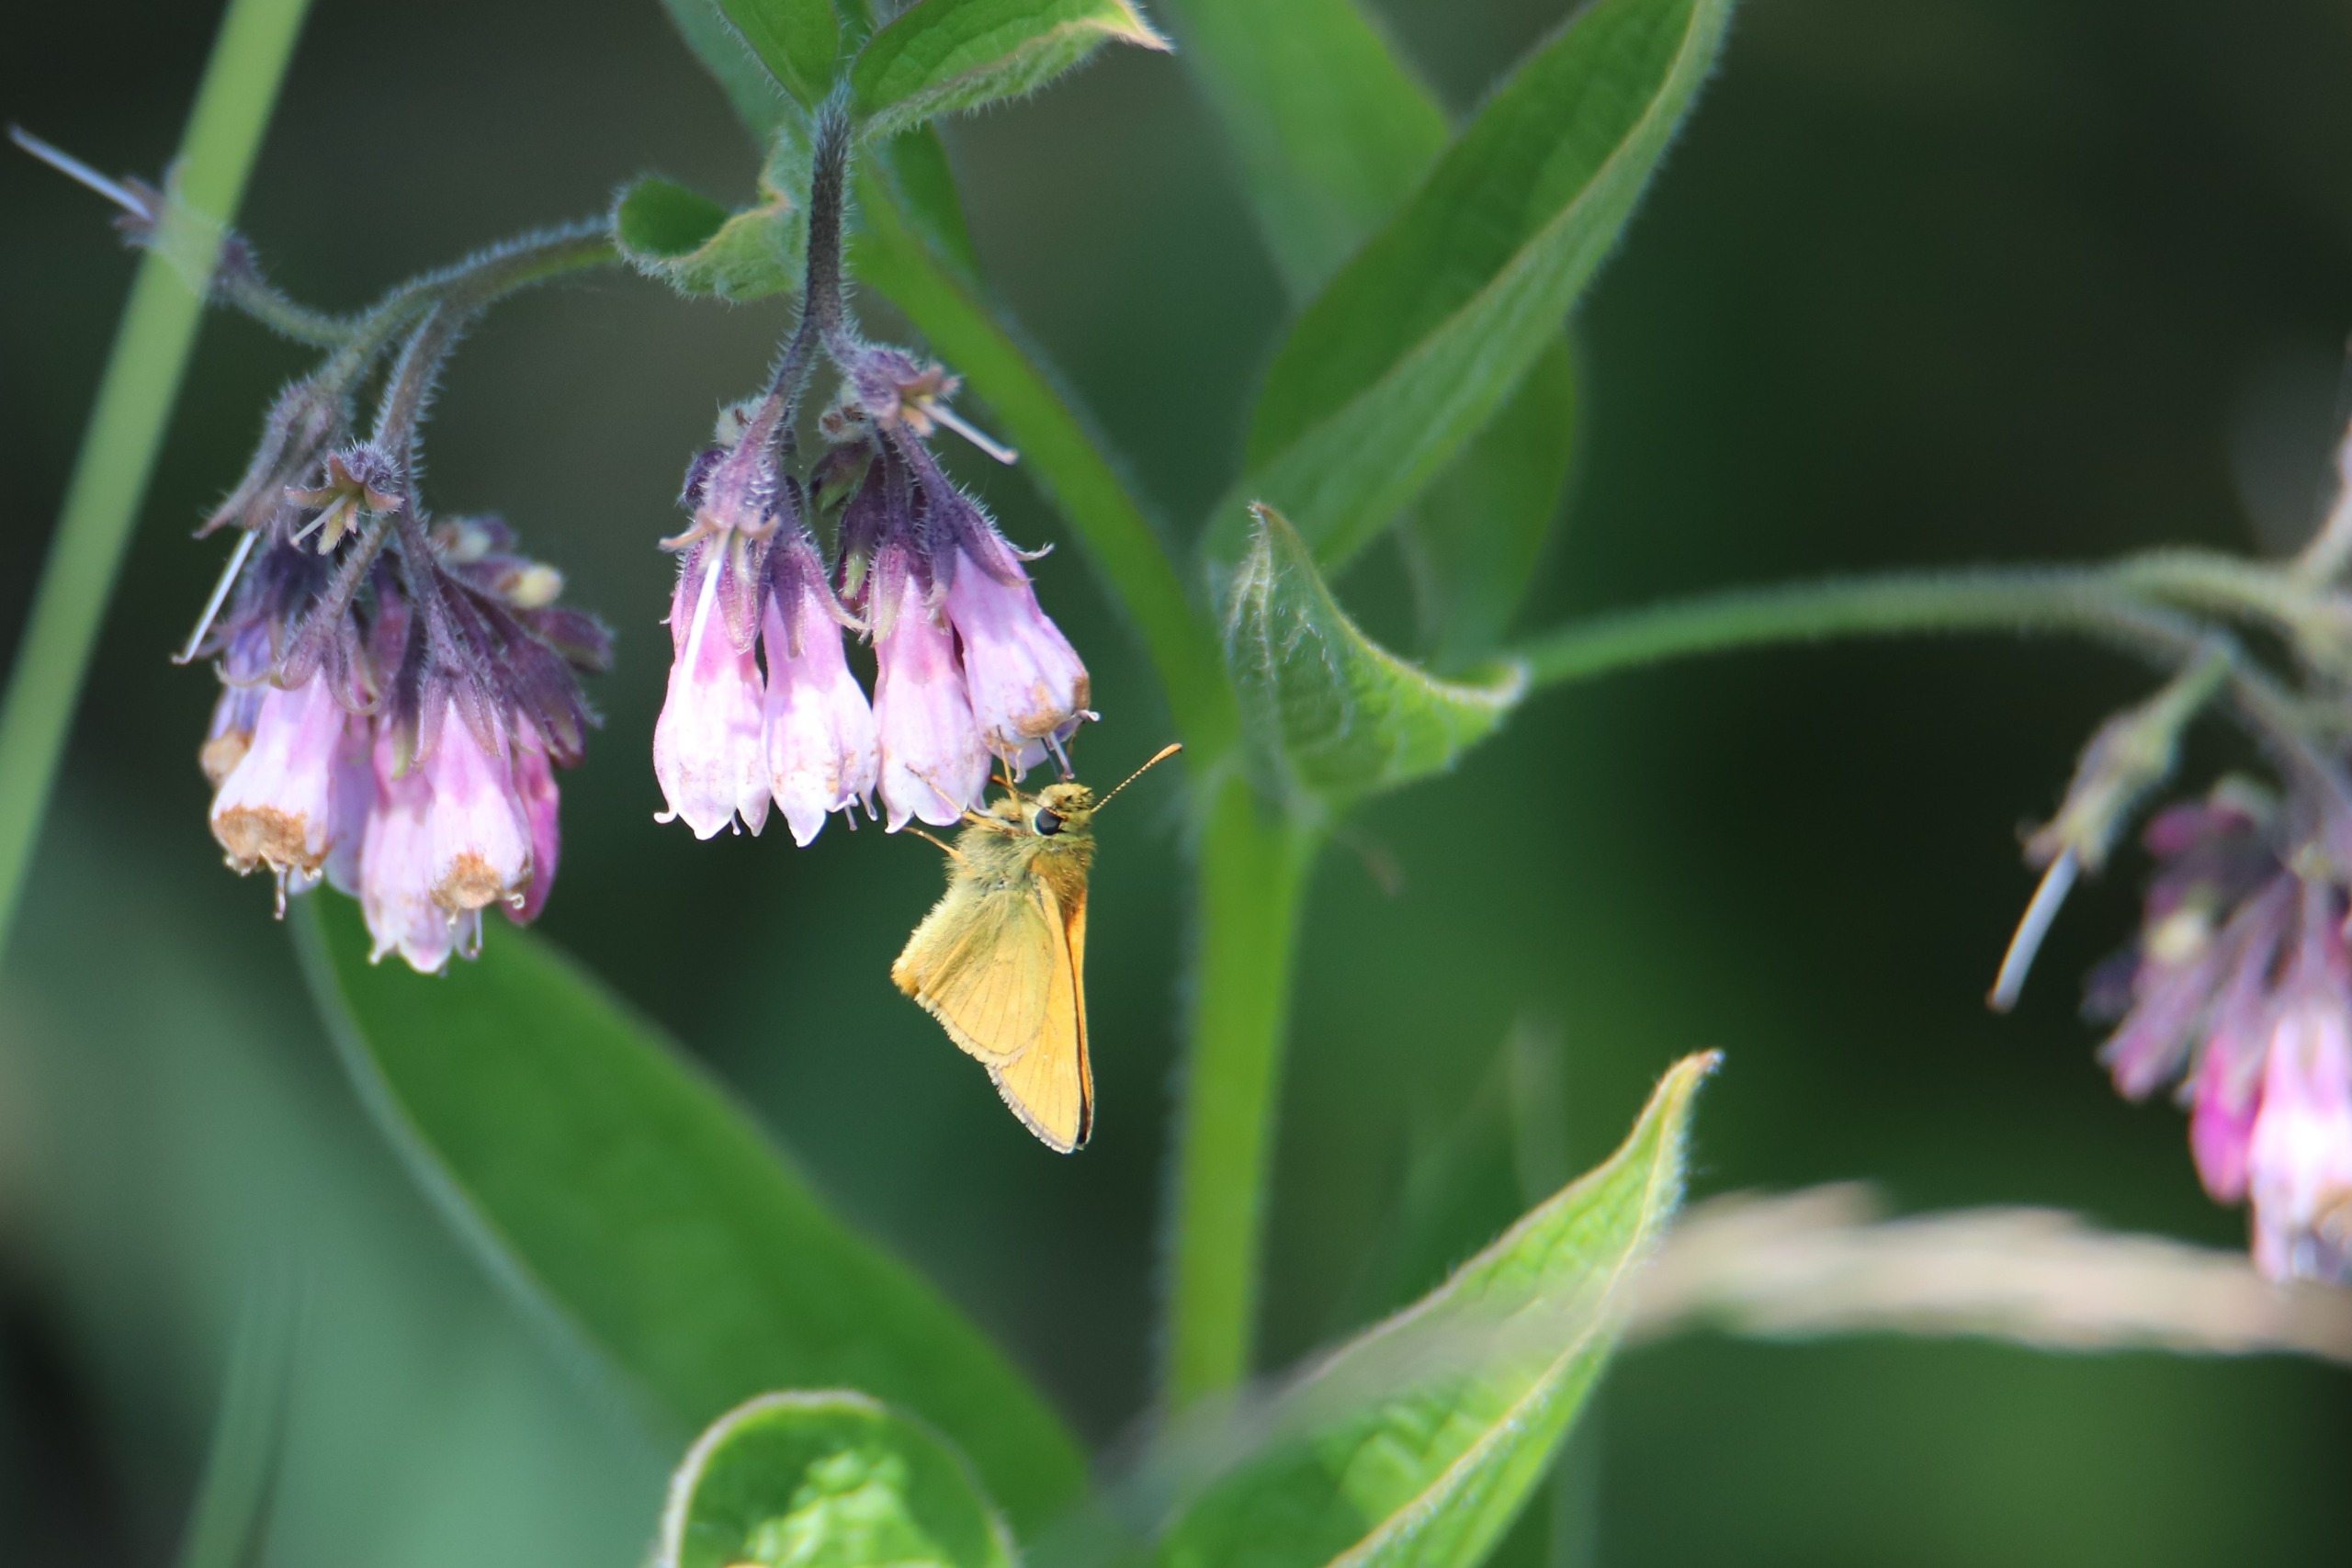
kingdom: Animalia
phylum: Arthropoda
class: Insecta
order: Lepidoptera
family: Hesperiidae
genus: Ochlodes
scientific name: Ochlodes venata
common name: Stor bredpande
